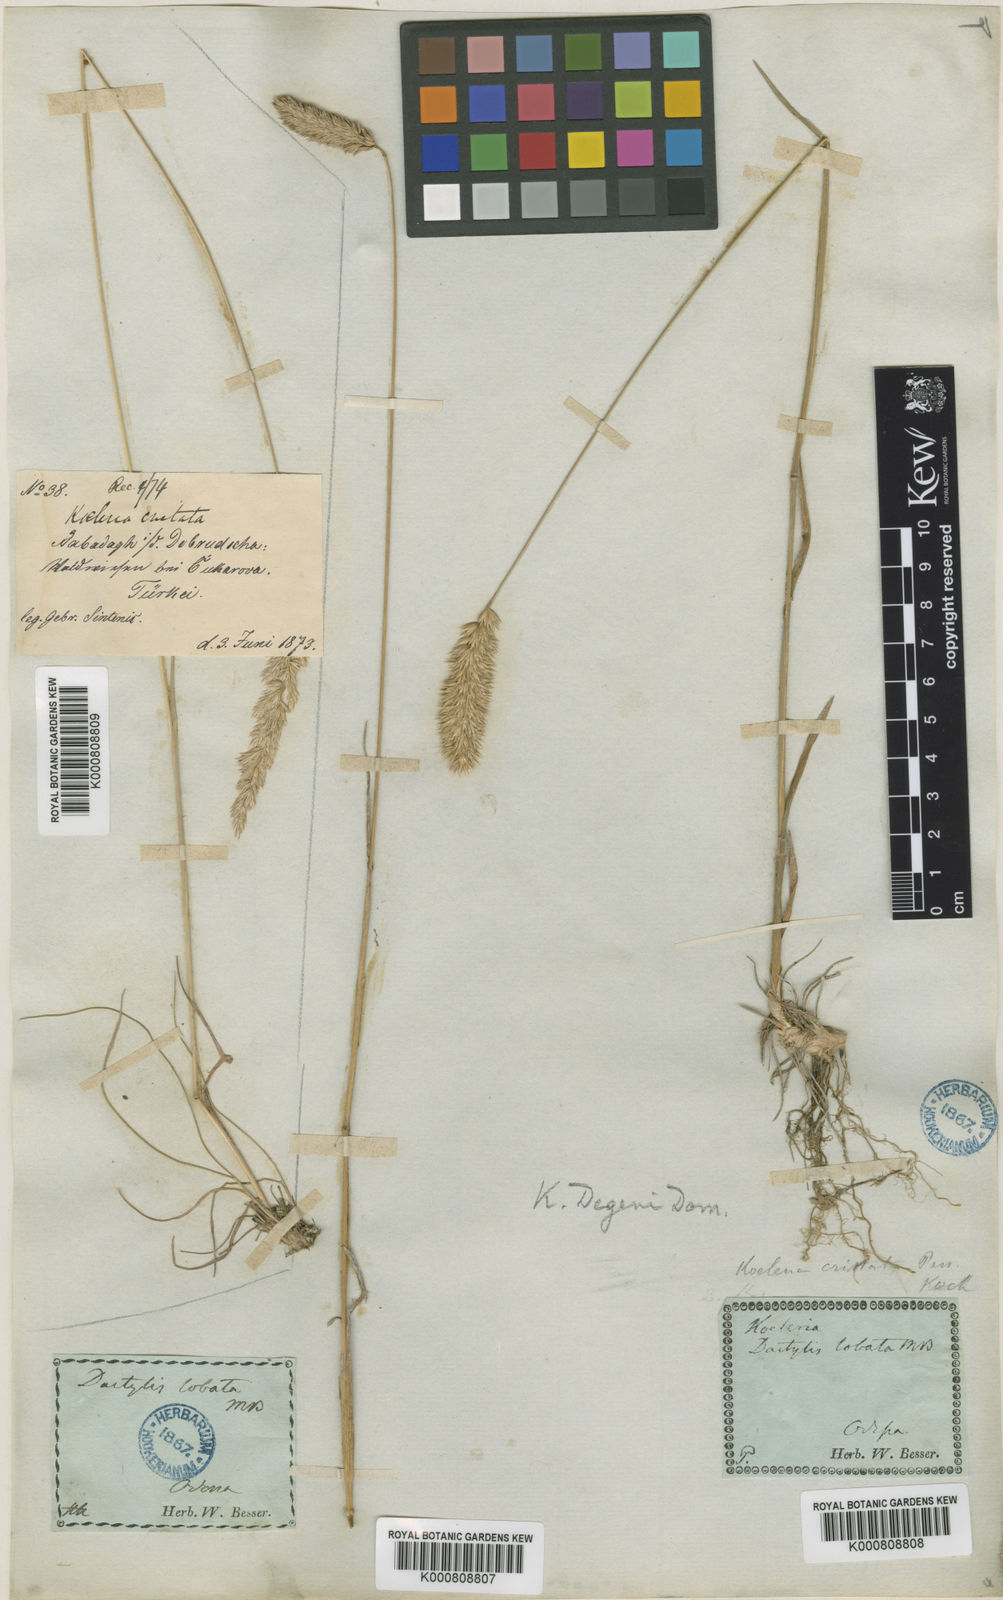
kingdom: Plantae
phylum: Tracheophyta
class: Liliopsida
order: Poales
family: Poaceae
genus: Koeleria
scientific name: Koeleria brevis
